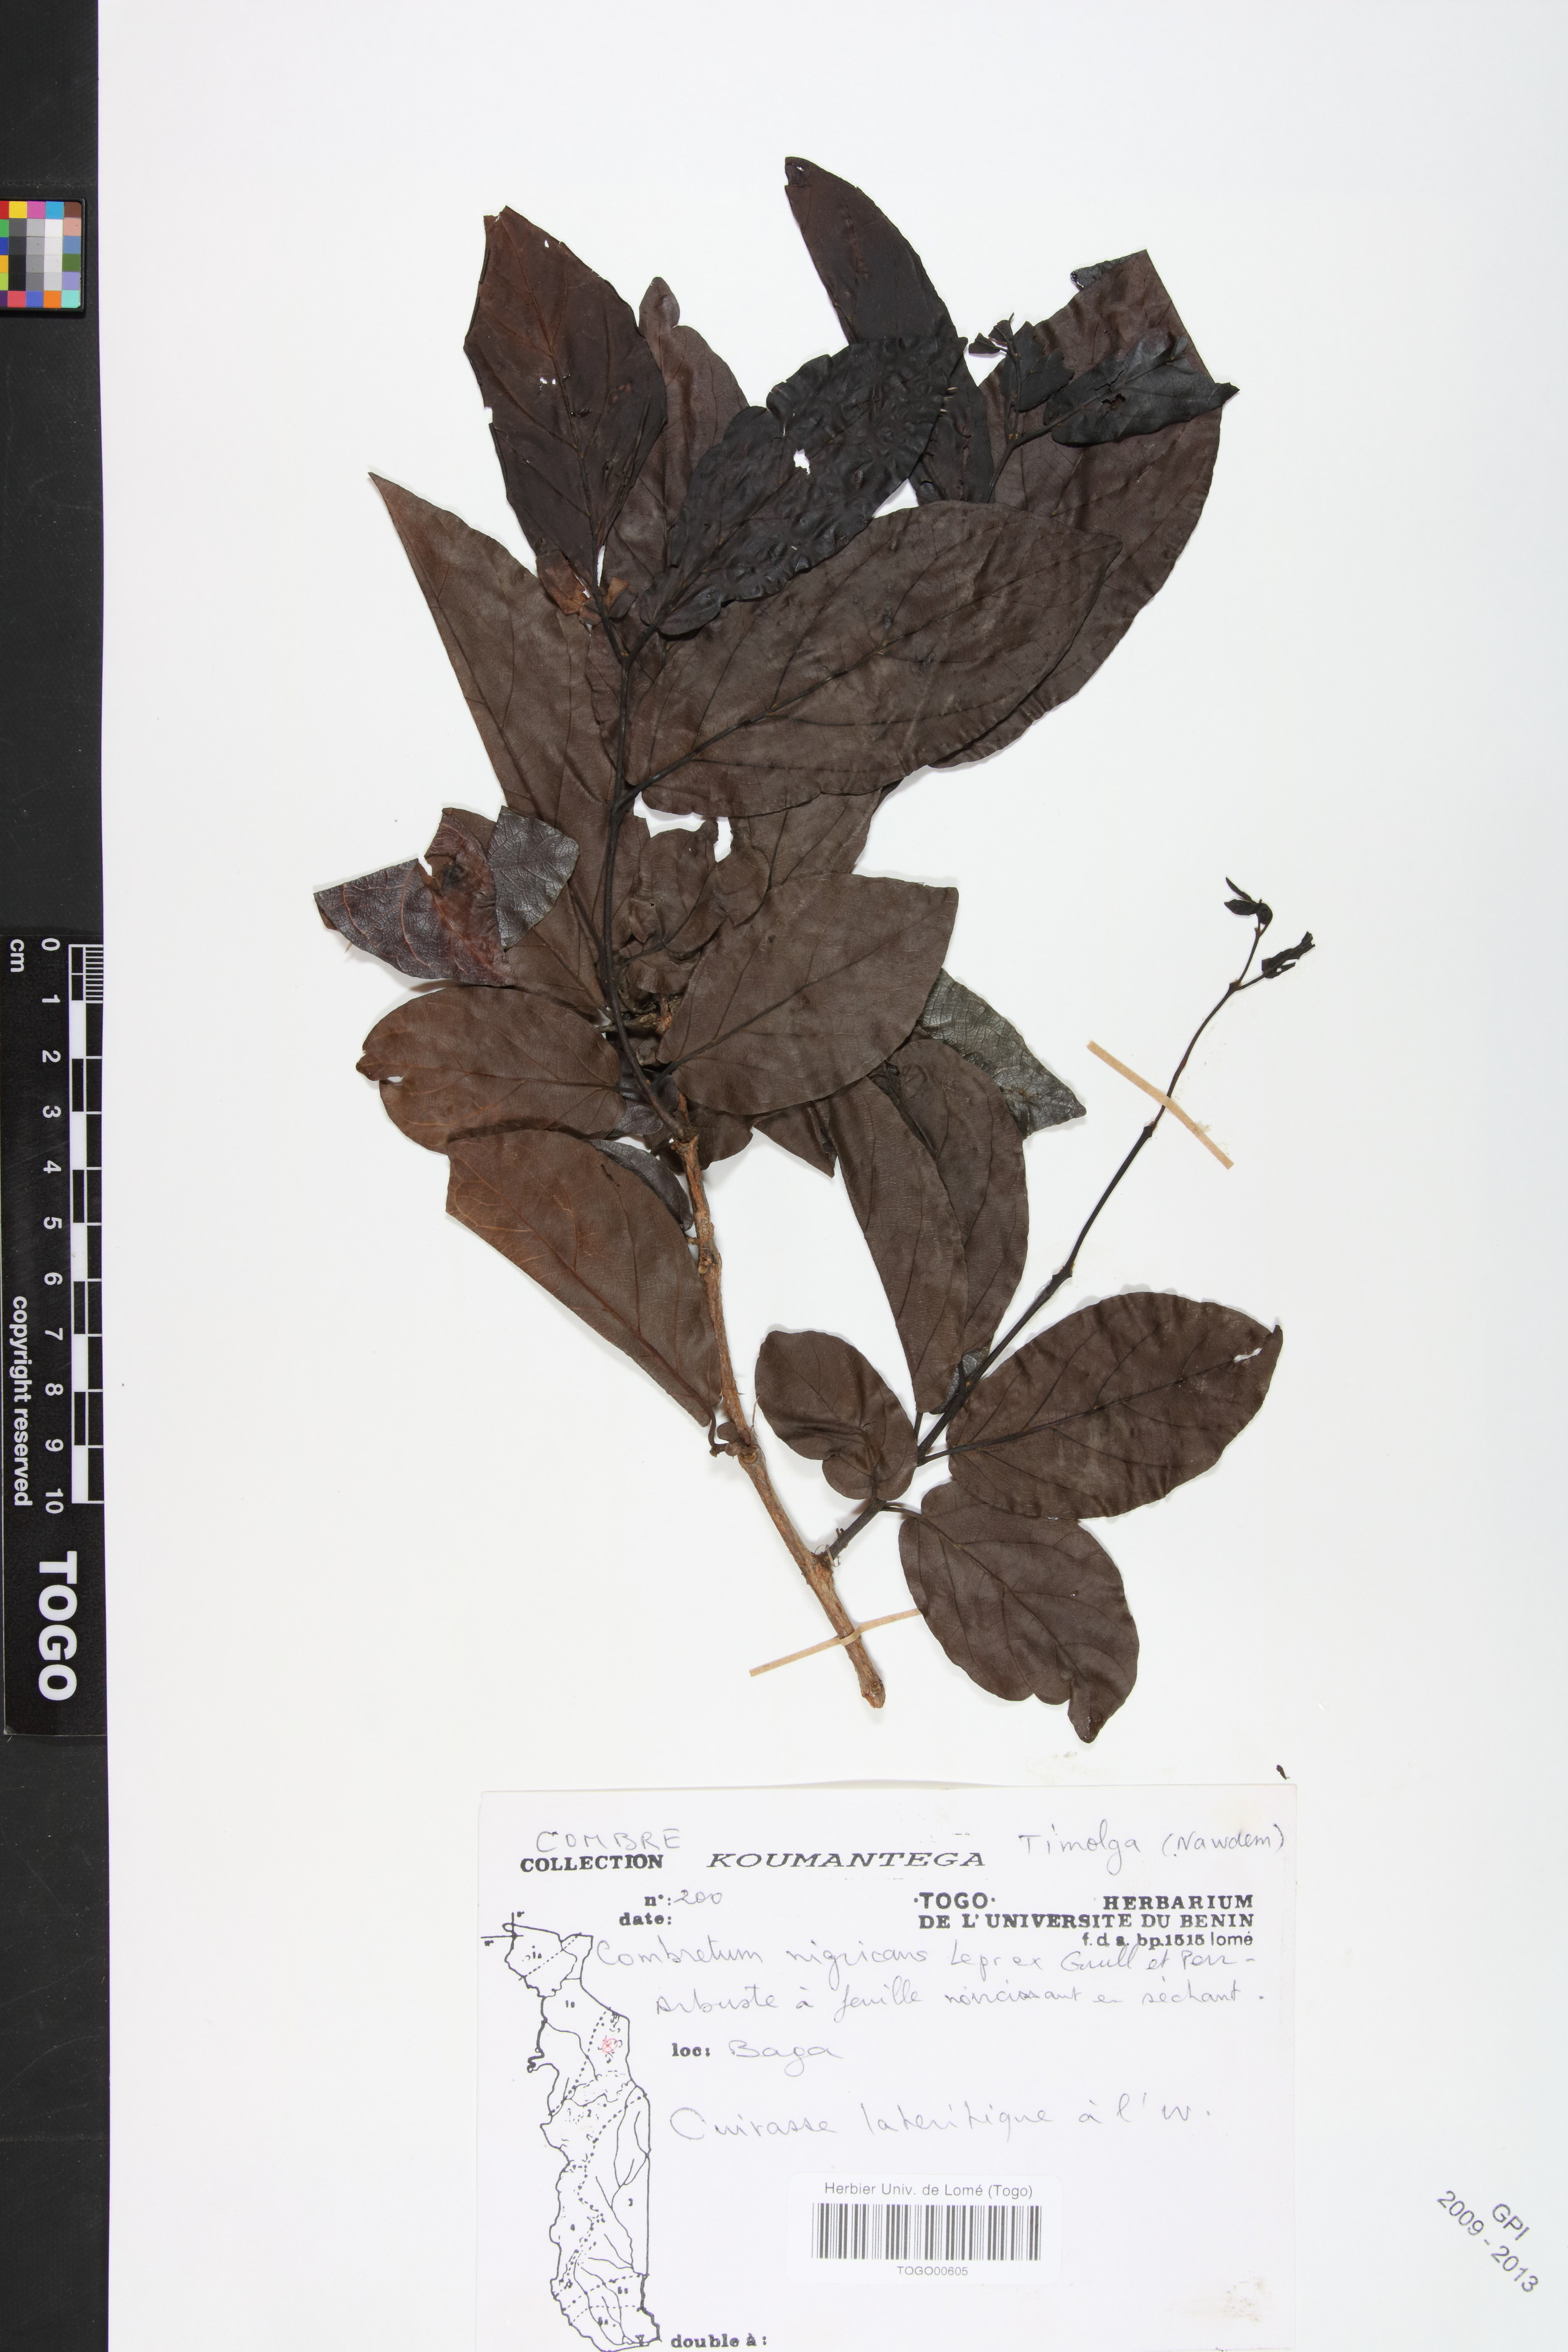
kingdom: Plantae
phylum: Tracheophyta
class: Magnoliopsida
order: Myrtales
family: Combretaceae
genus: Combretum
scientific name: Combretum nigricans
